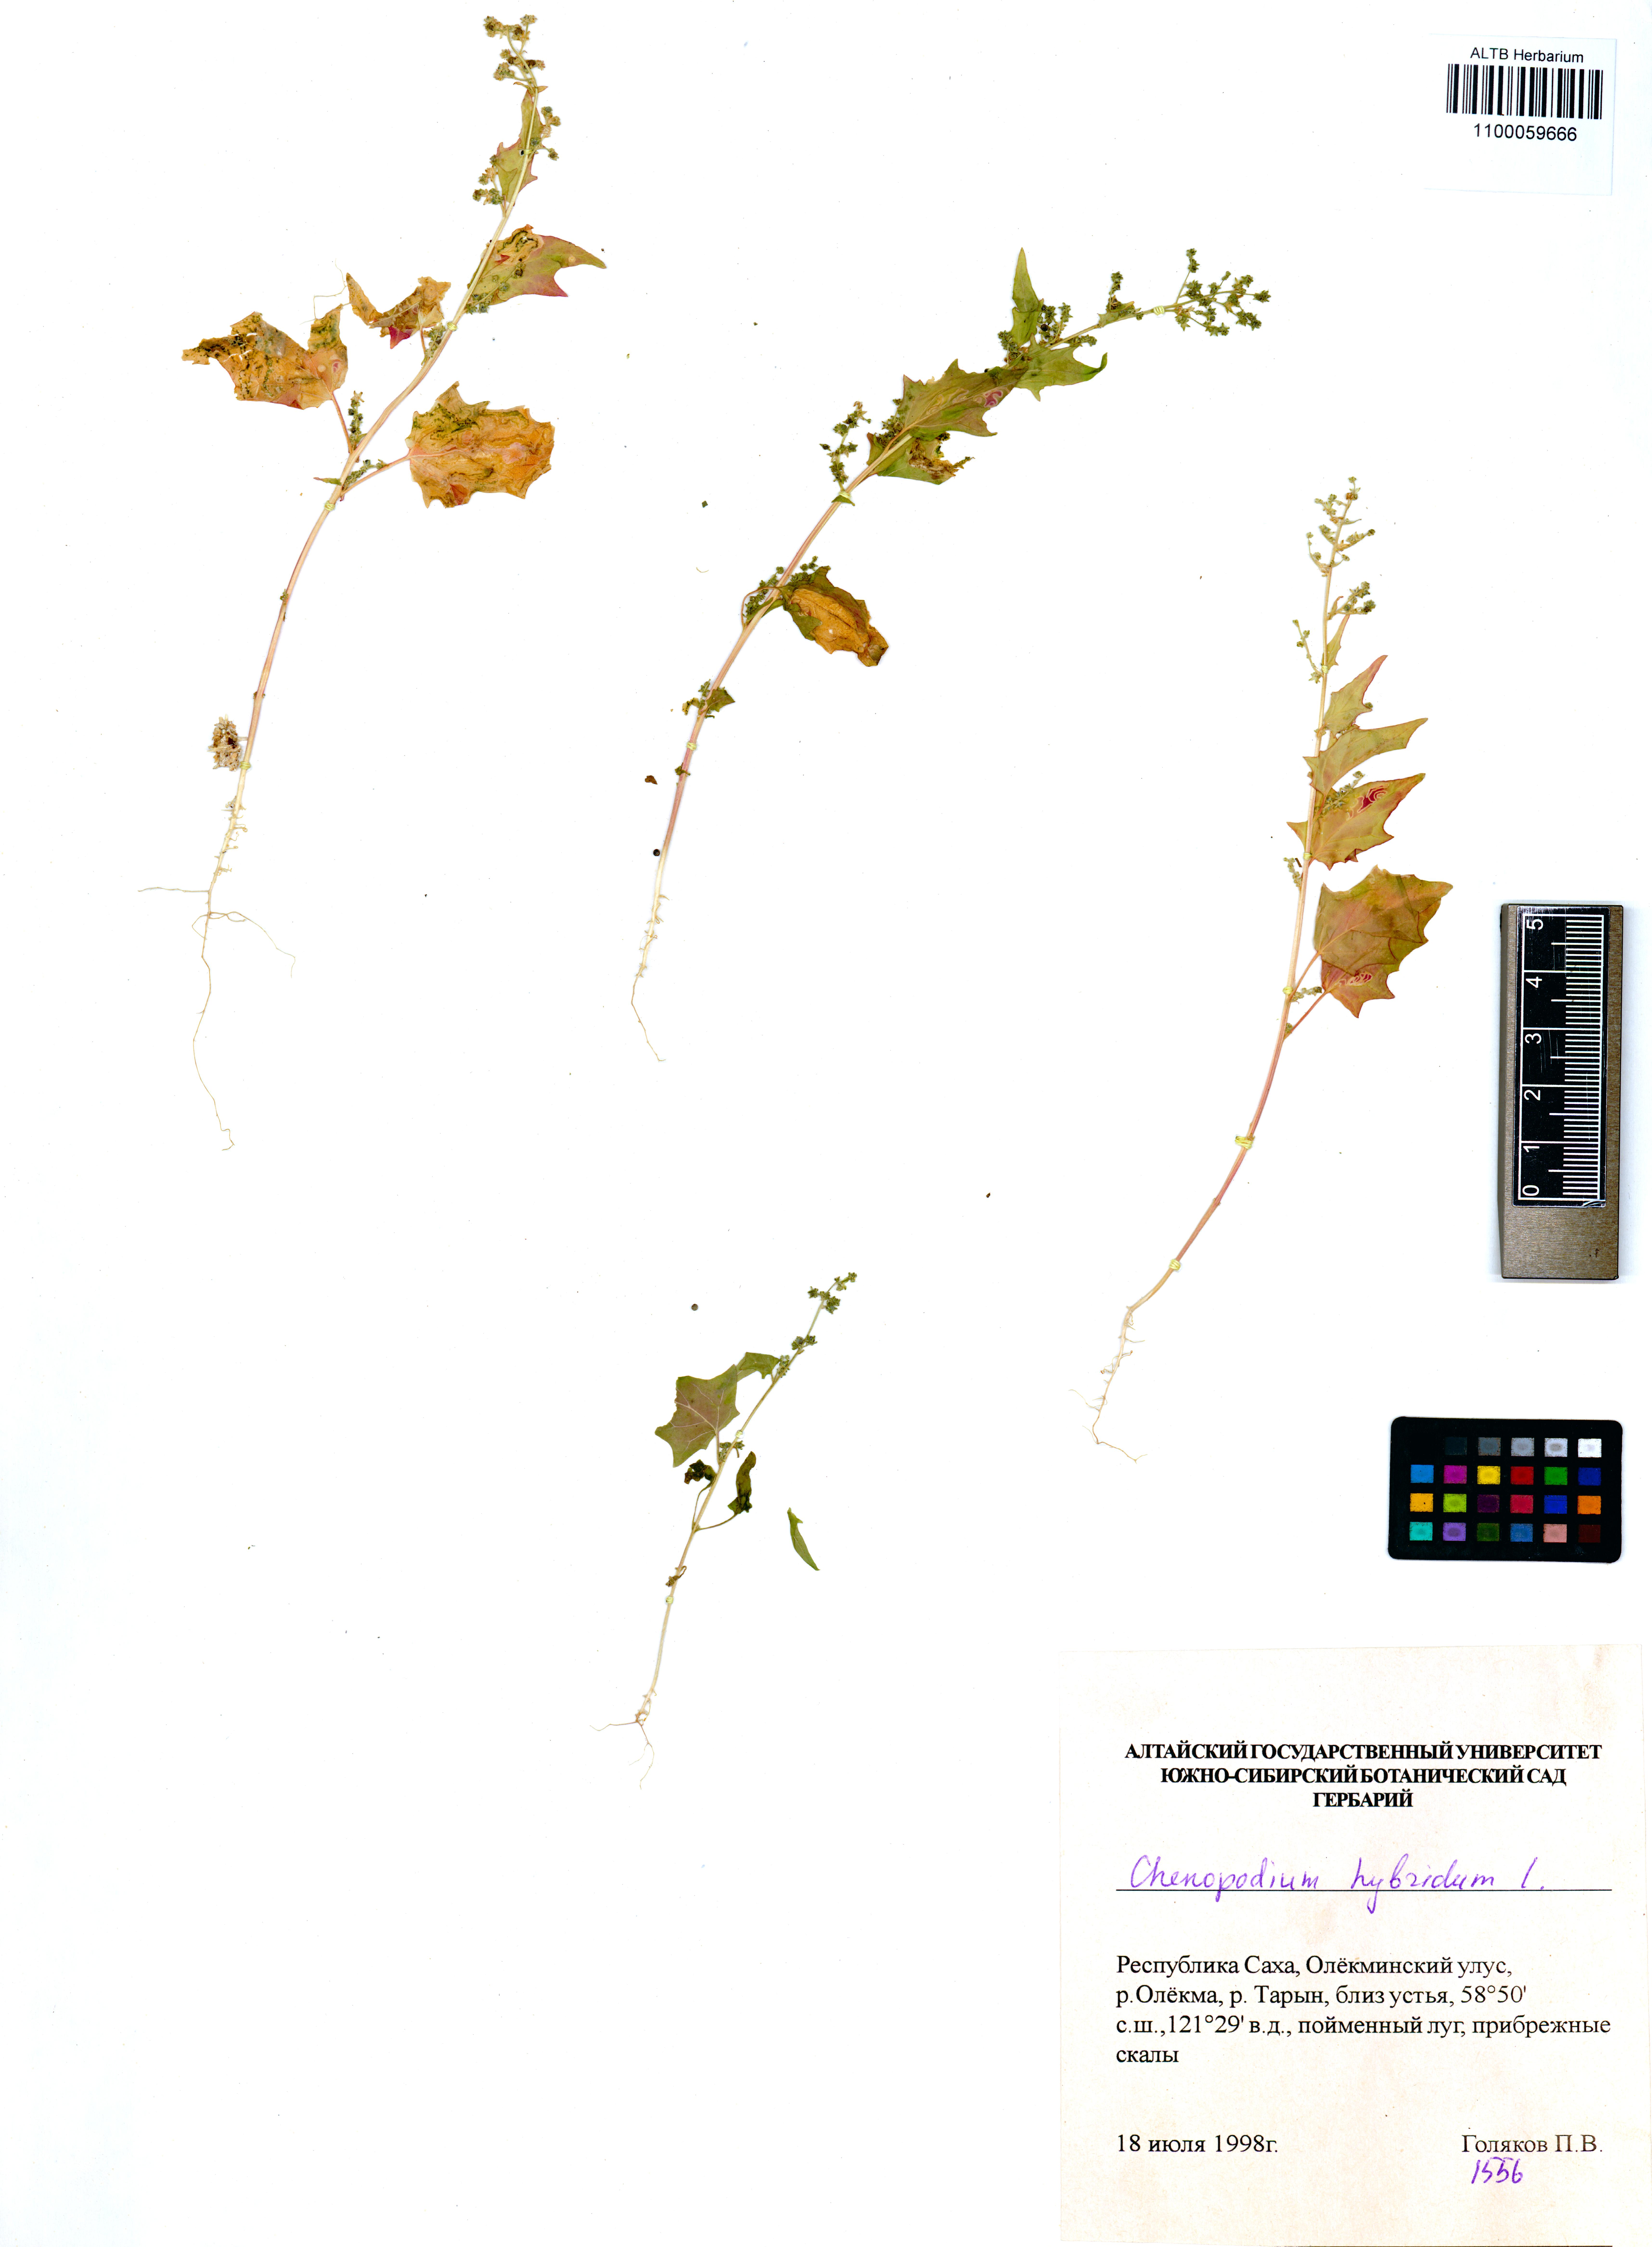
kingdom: Plantae
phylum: Tracheophyta
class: Magnoliopsida
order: Caryophyllales
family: Amaranthaceae
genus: Chenopodiastrum
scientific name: Chenopodiastrum hybridum
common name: Mapleleaf goosefoot
